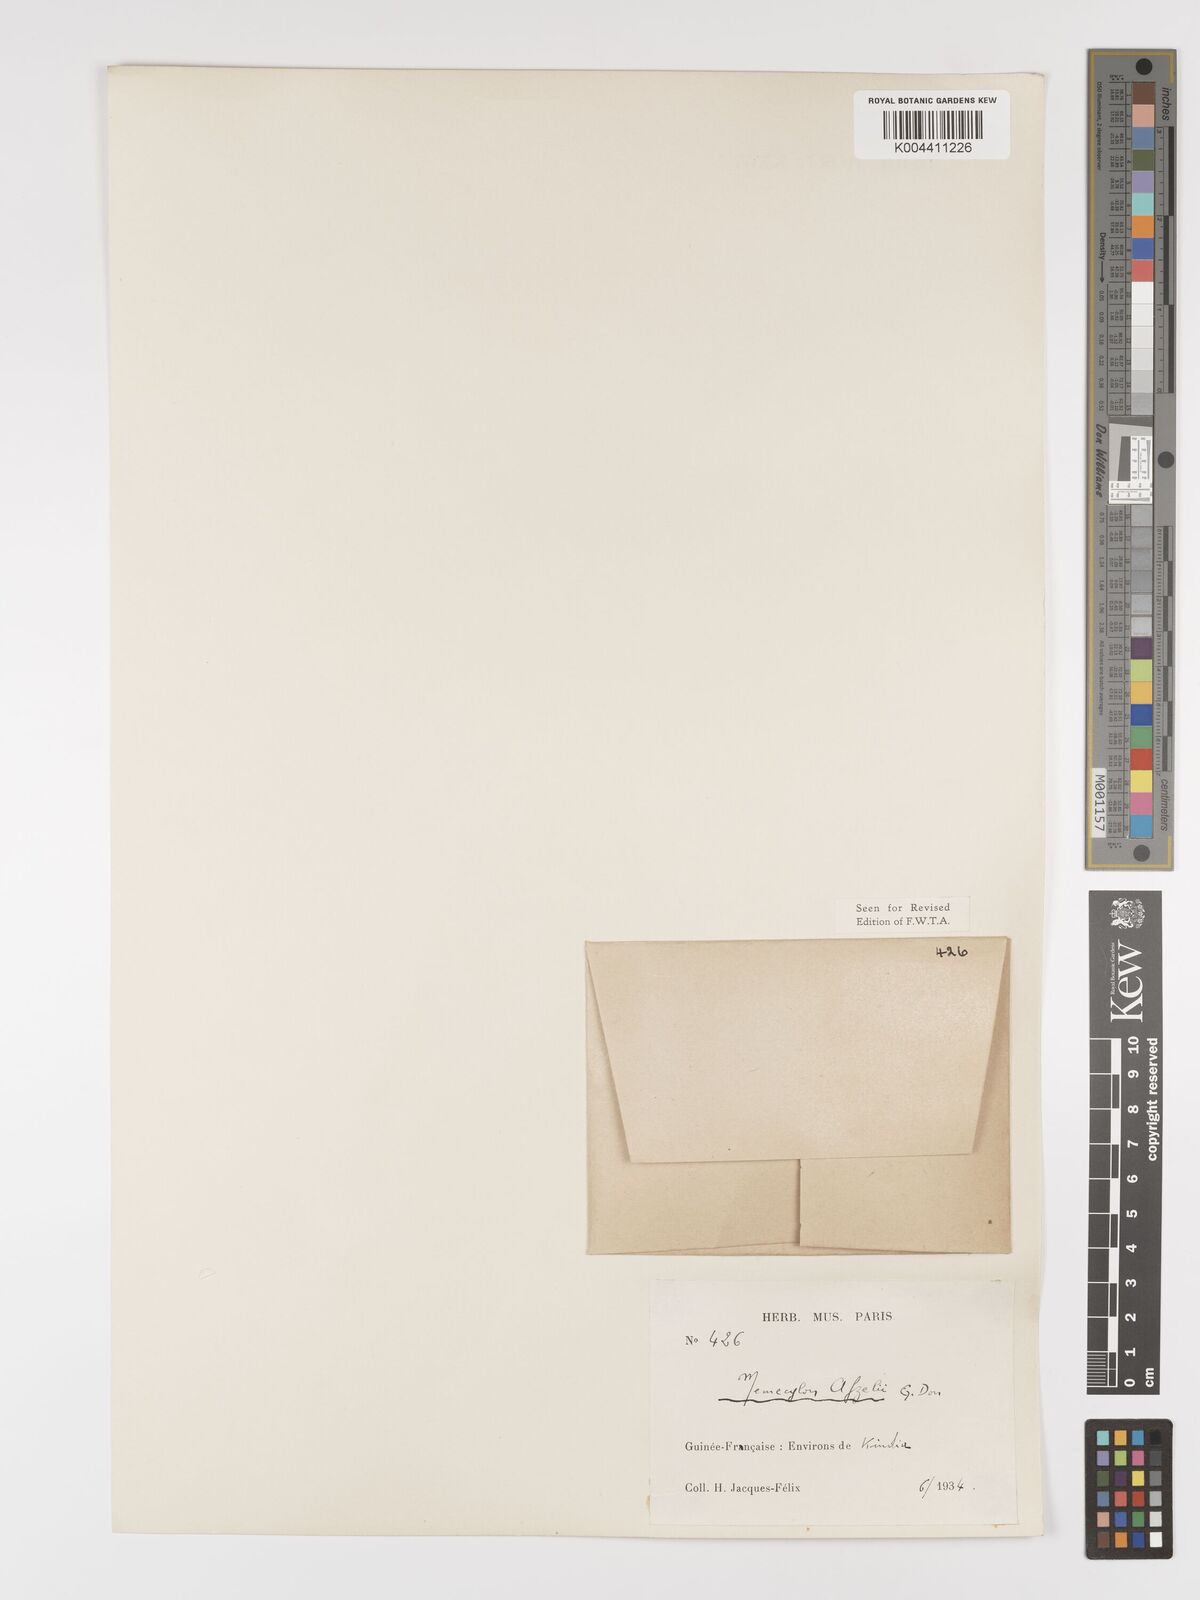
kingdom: Plantae
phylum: Tracheophyta
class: Magnoliopsida
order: Myrtales
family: Melastomataceae
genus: Memecylon
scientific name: Memecylon afzelii
